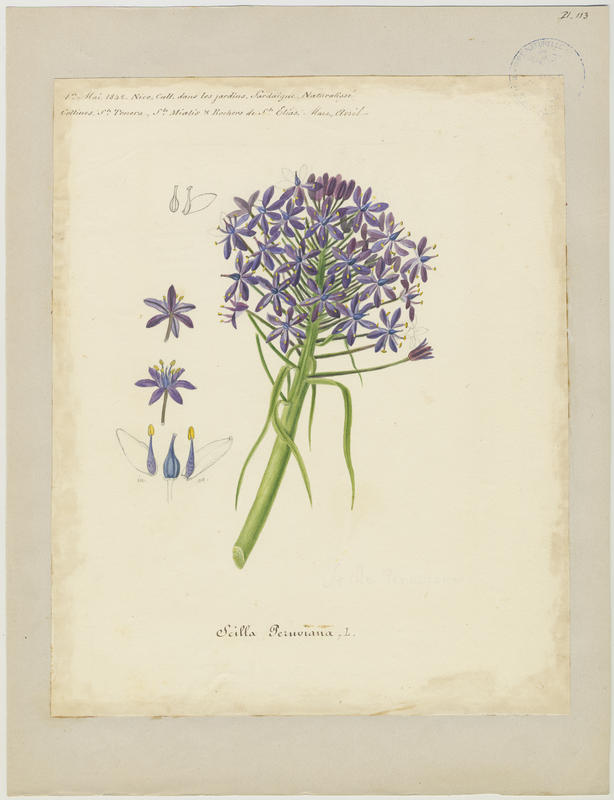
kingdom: Plantae
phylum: Tracheophyta
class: Liliopsida
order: Asparagales
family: Asparagaceae
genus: Scilla
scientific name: Scilla peruviana
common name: Portuguese squill
